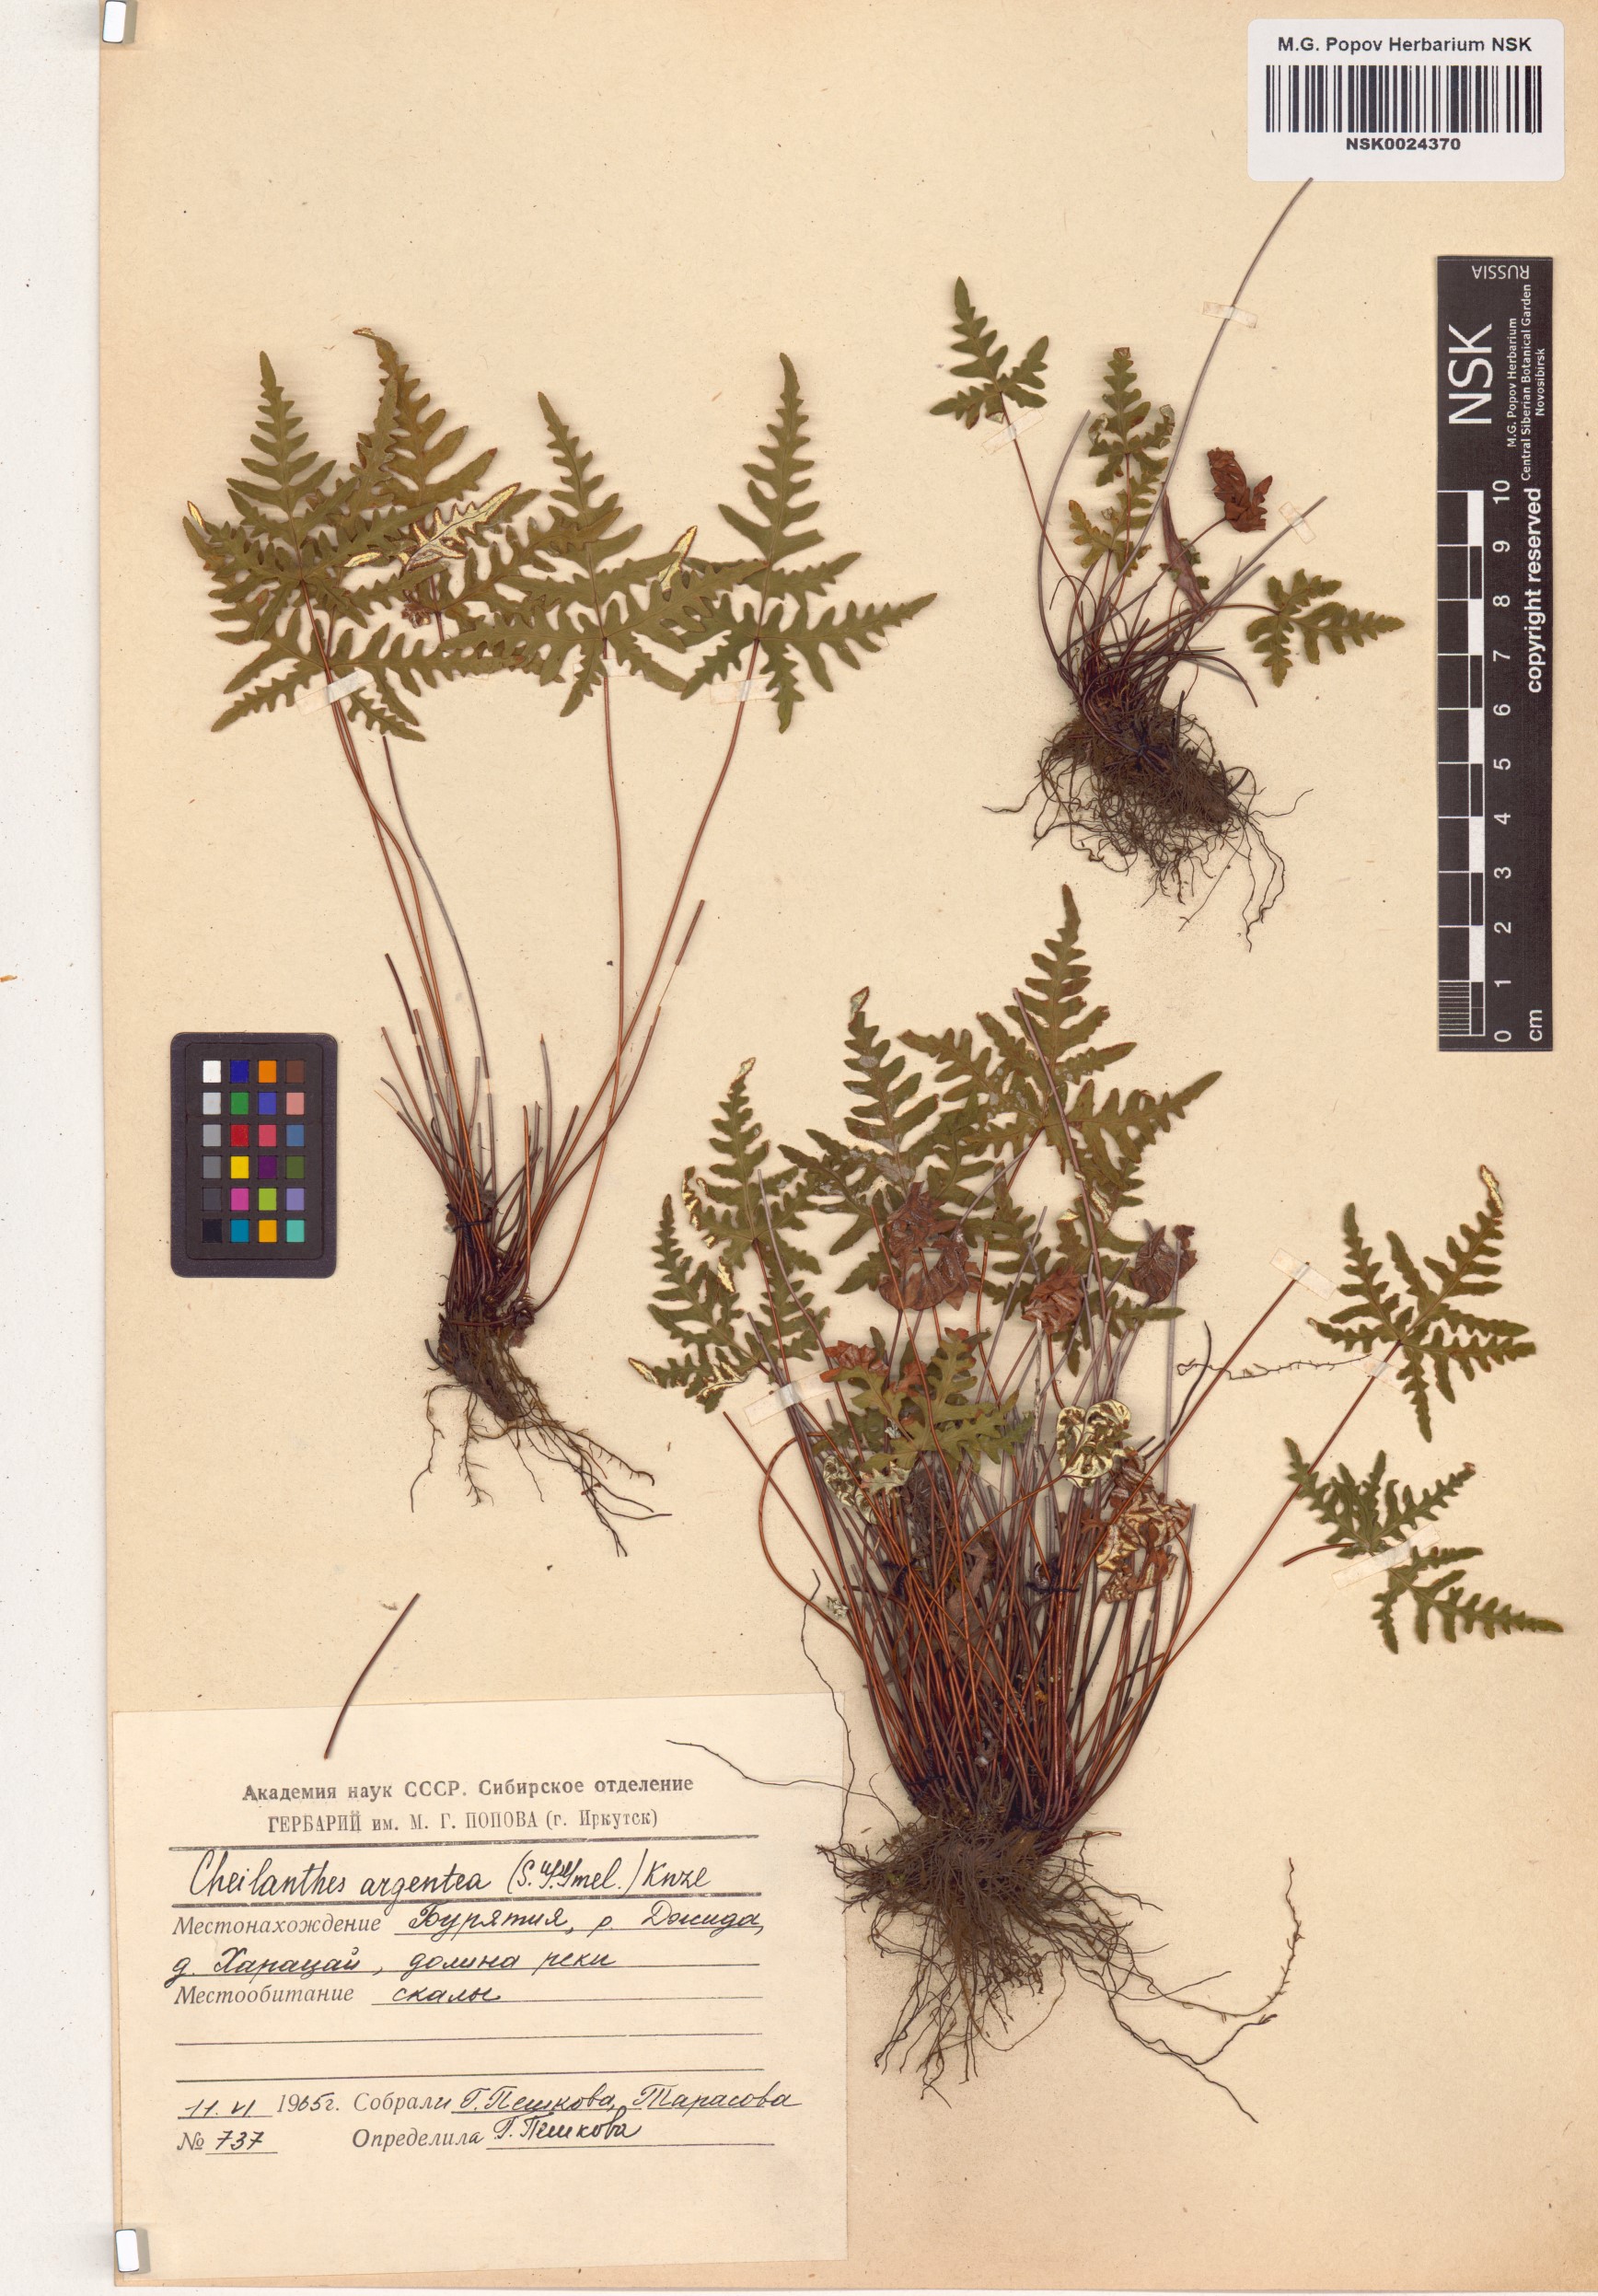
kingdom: Plantae
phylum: Tracheophyta
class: Polypodiopsida
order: Polypodiales
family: Pteridaceae
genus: Aleuritopteris
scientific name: Aleuritopteris argentea
